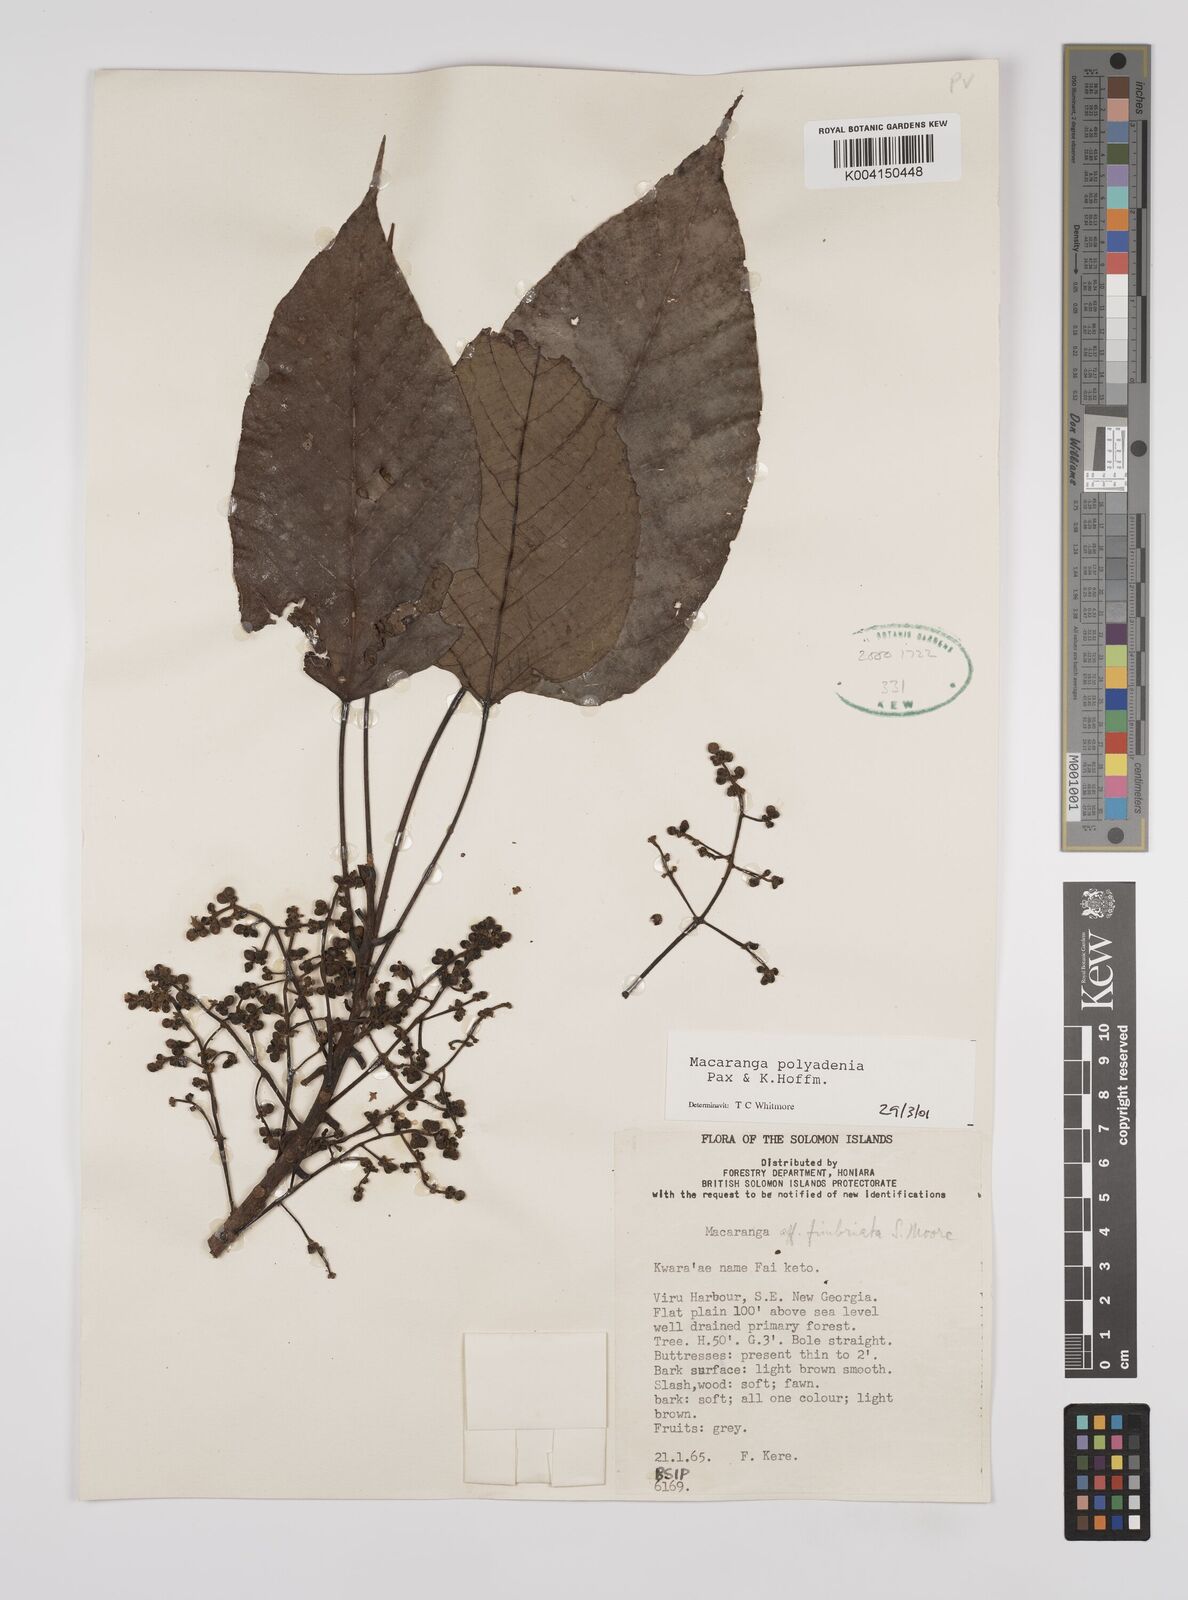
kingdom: Plantae
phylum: Tracheophyta
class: Magnoliopsida
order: Malpighiales
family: Euphorbiaceae
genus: Macaranga
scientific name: Macaranga polyadenia
